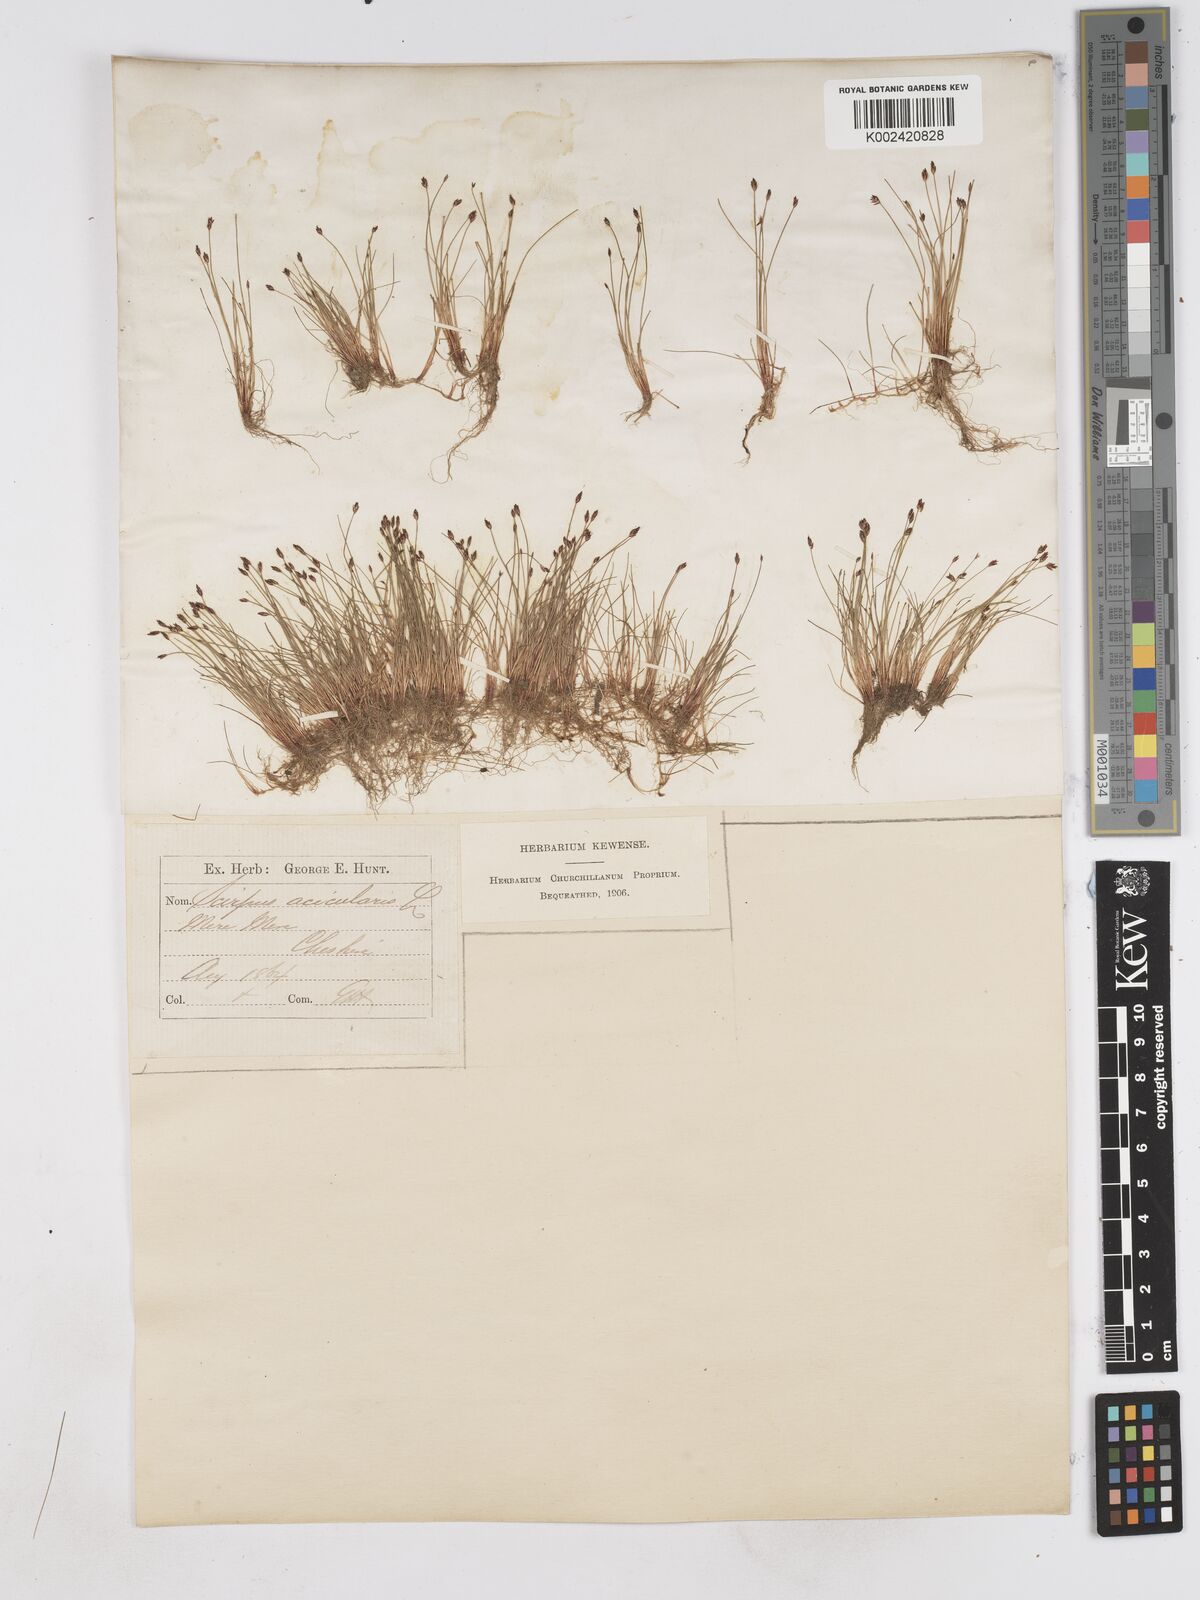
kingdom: Plantae
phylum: Tracheophyta
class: Liliopsida
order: Poales
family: Cyperaceae
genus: Eleocharis
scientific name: Eleocharis acicularis
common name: Needle spike-rush
